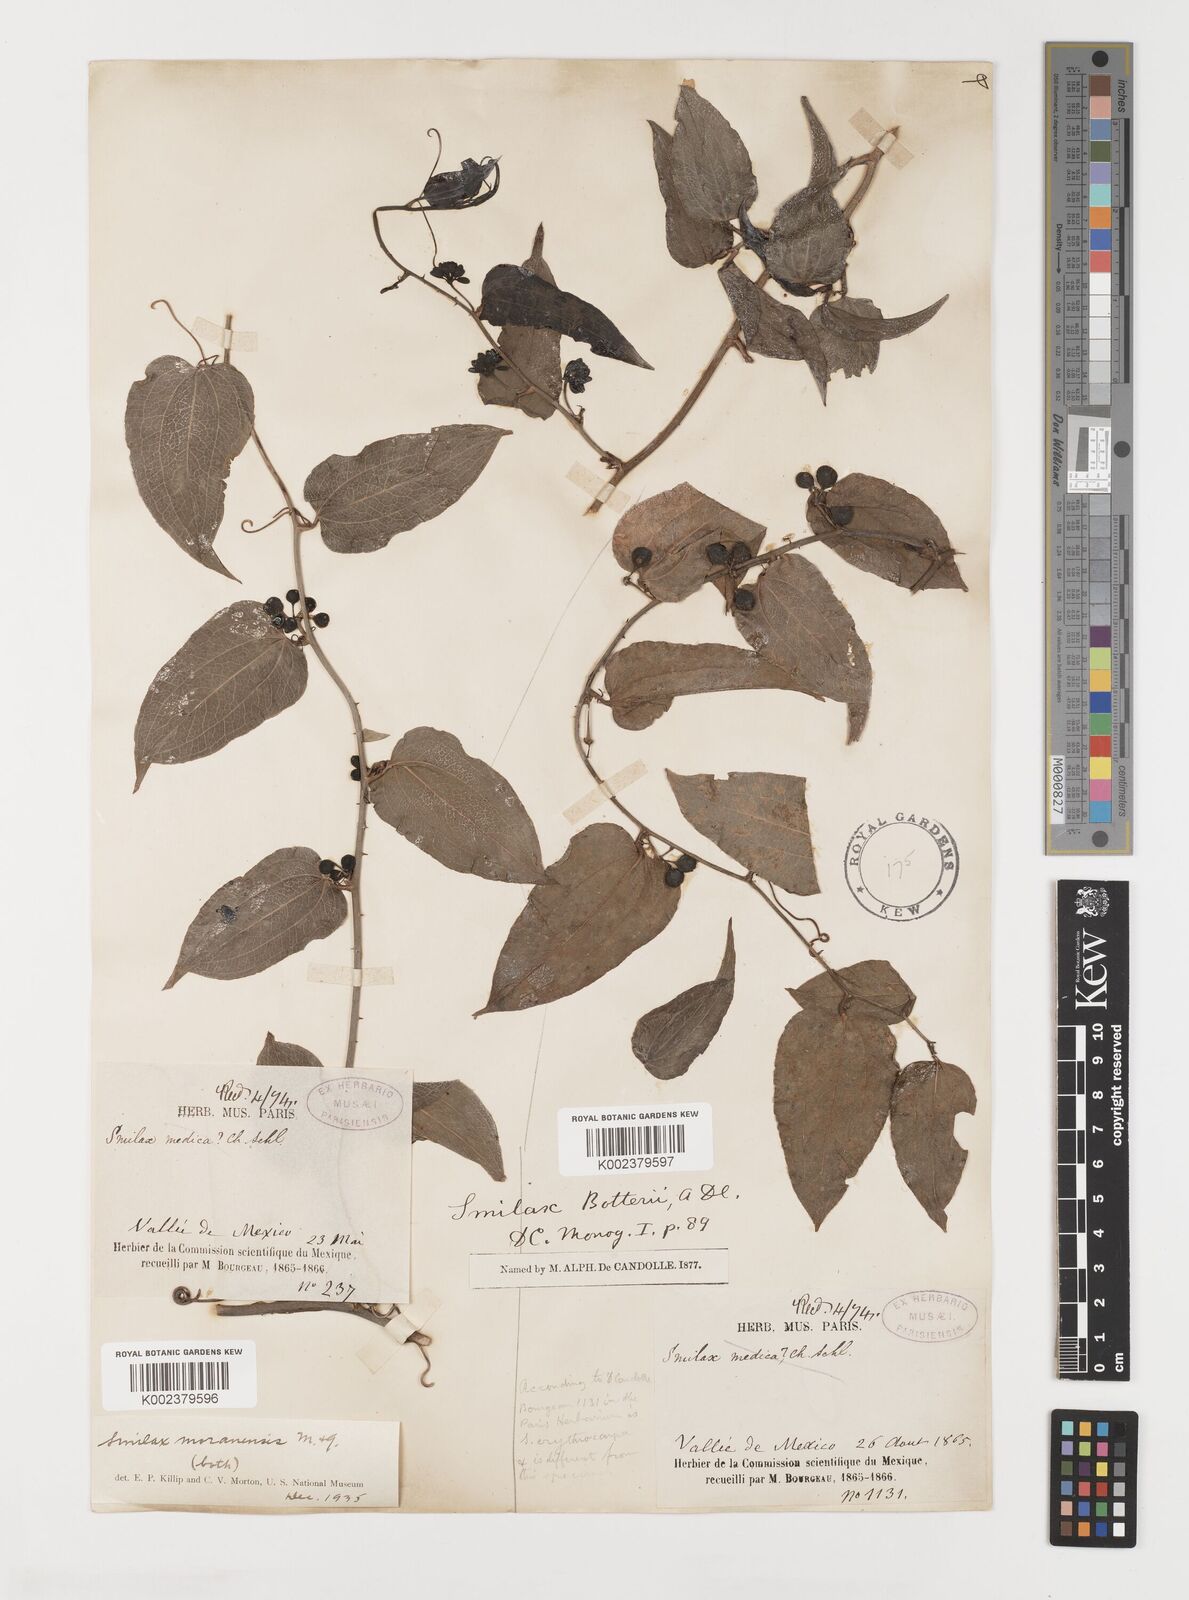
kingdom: Plantae
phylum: Tracheophyta
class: Liliopsida
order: Liliales
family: Smilacaceae
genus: Smilax
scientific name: Smilax moranensis
